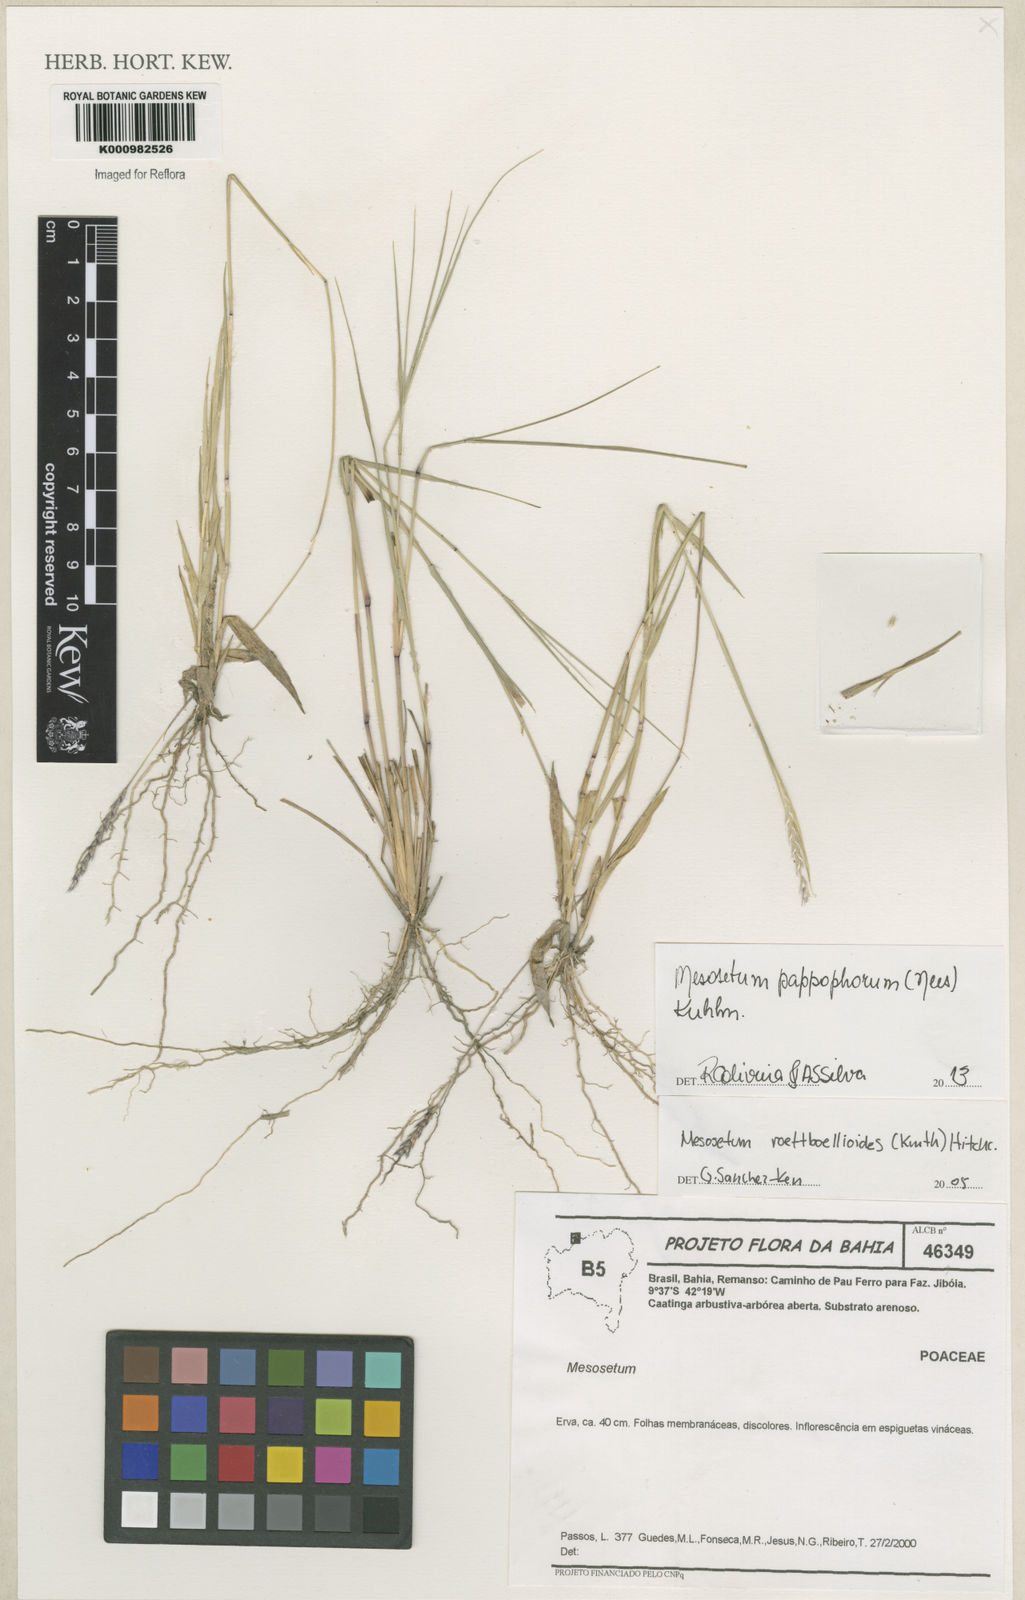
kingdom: Plantae
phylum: Tracheophyta
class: Liliopsida
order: Poales
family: Poaceae
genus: Mesosetum
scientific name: Mesosetum pappophorum
